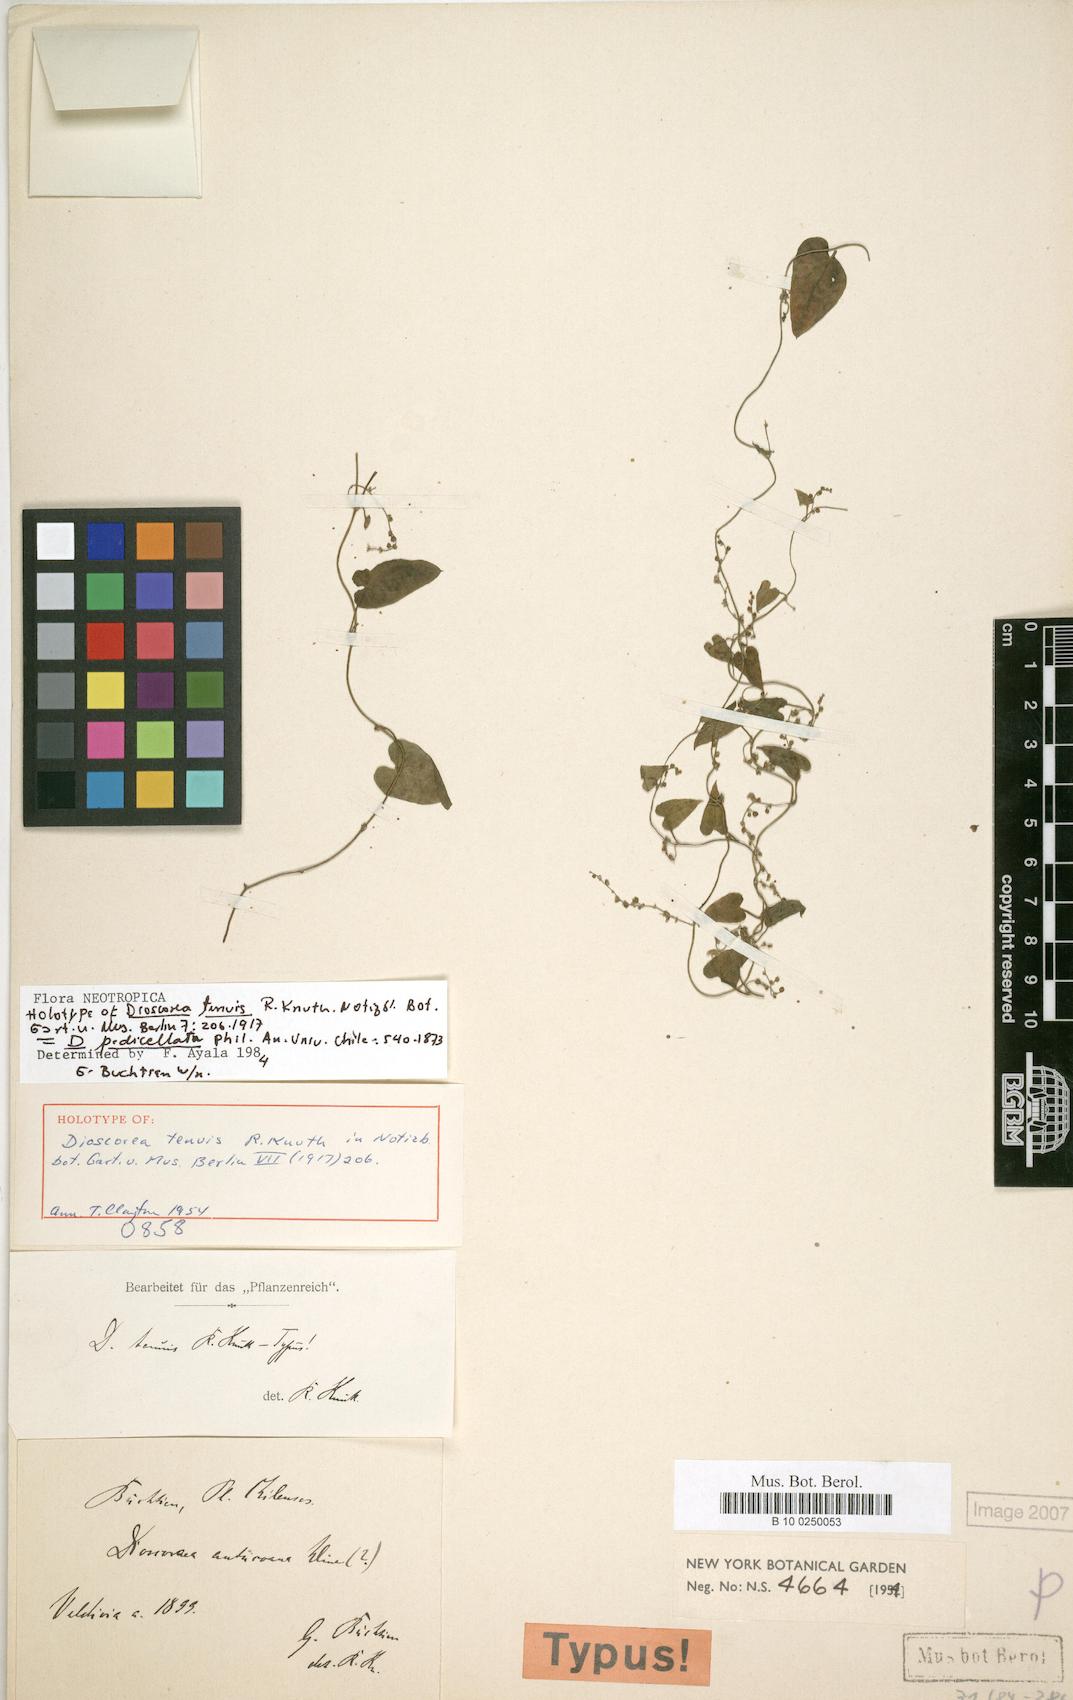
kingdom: Plantae
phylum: Tracheophyta
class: Liliopsida
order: Dioscoreales
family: Dioscoreaceae
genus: Dioscorea
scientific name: Dioscorea pedicellata
